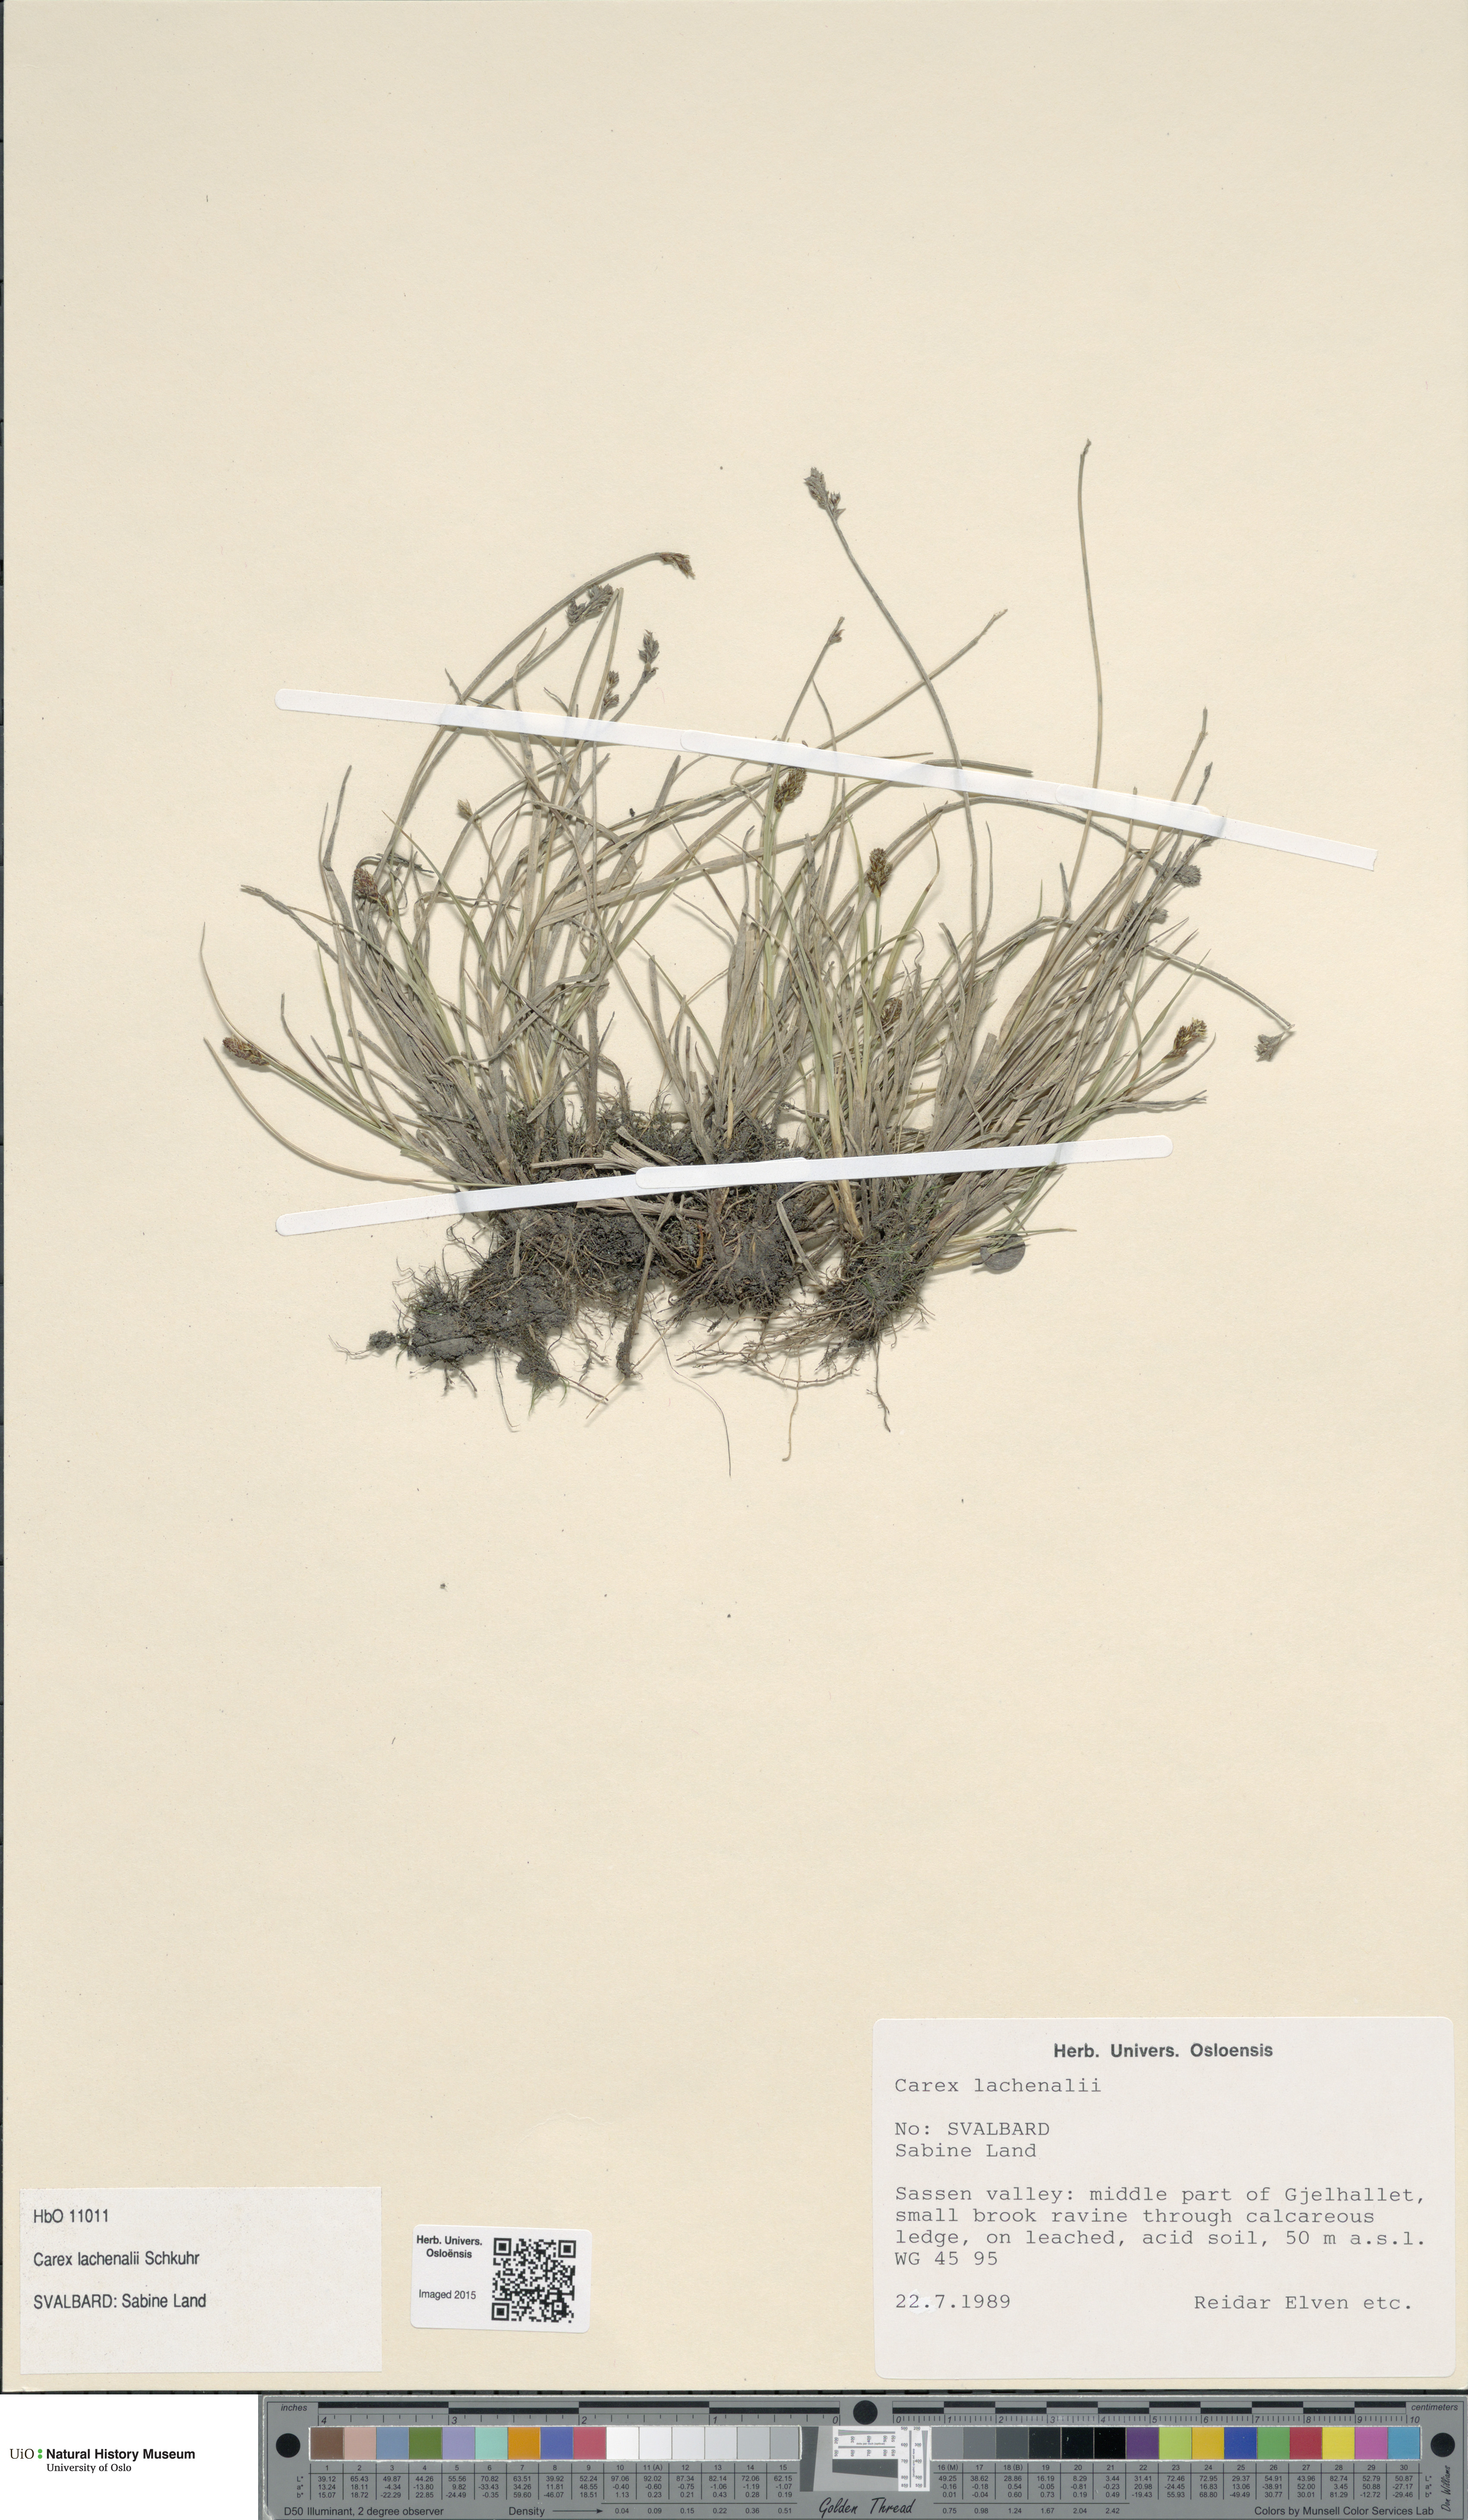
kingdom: Plantae
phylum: Tracheophyta
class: Liliopsida
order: Poales
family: Cyperaceae
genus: Carex
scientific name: Carex lachenalii
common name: Hare's-foot sedge
